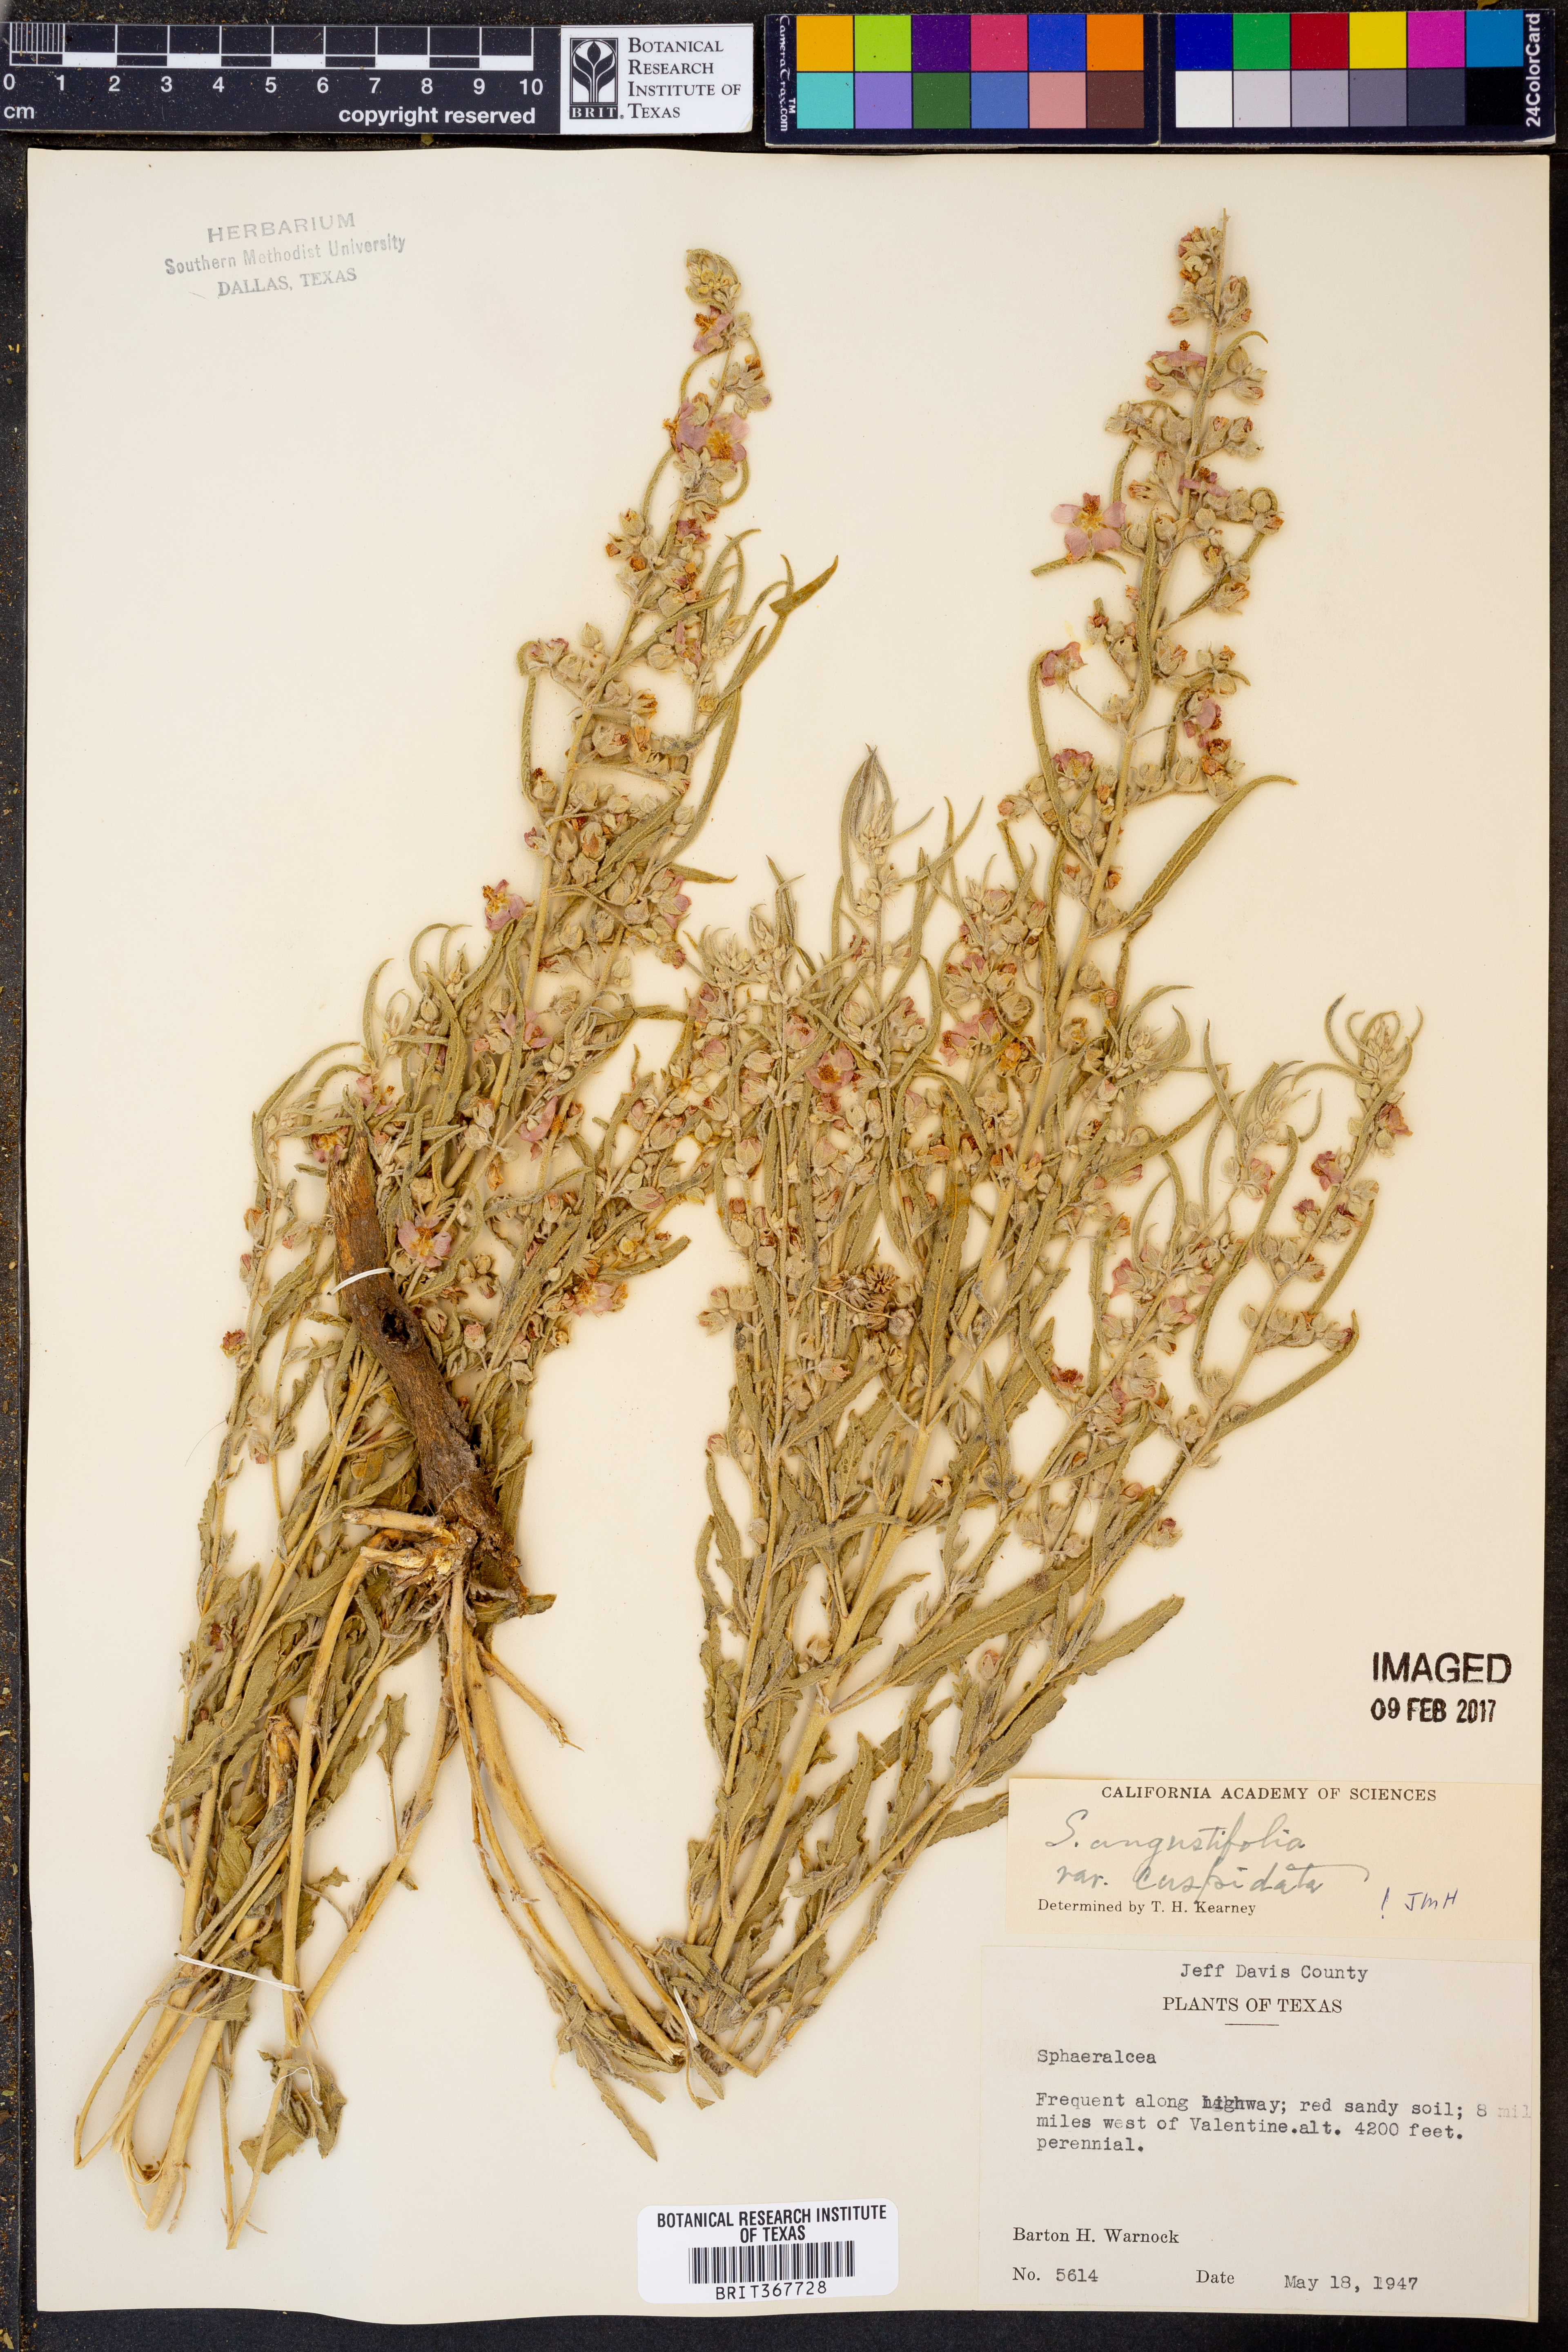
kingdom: Plantae
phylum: Tracheophyta
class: Magnoliopsida
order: Malvales
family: Malvaceae
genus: Sphaeralcea
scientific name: Sphaeralcea angustifolia
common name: Copper globe-mallow
